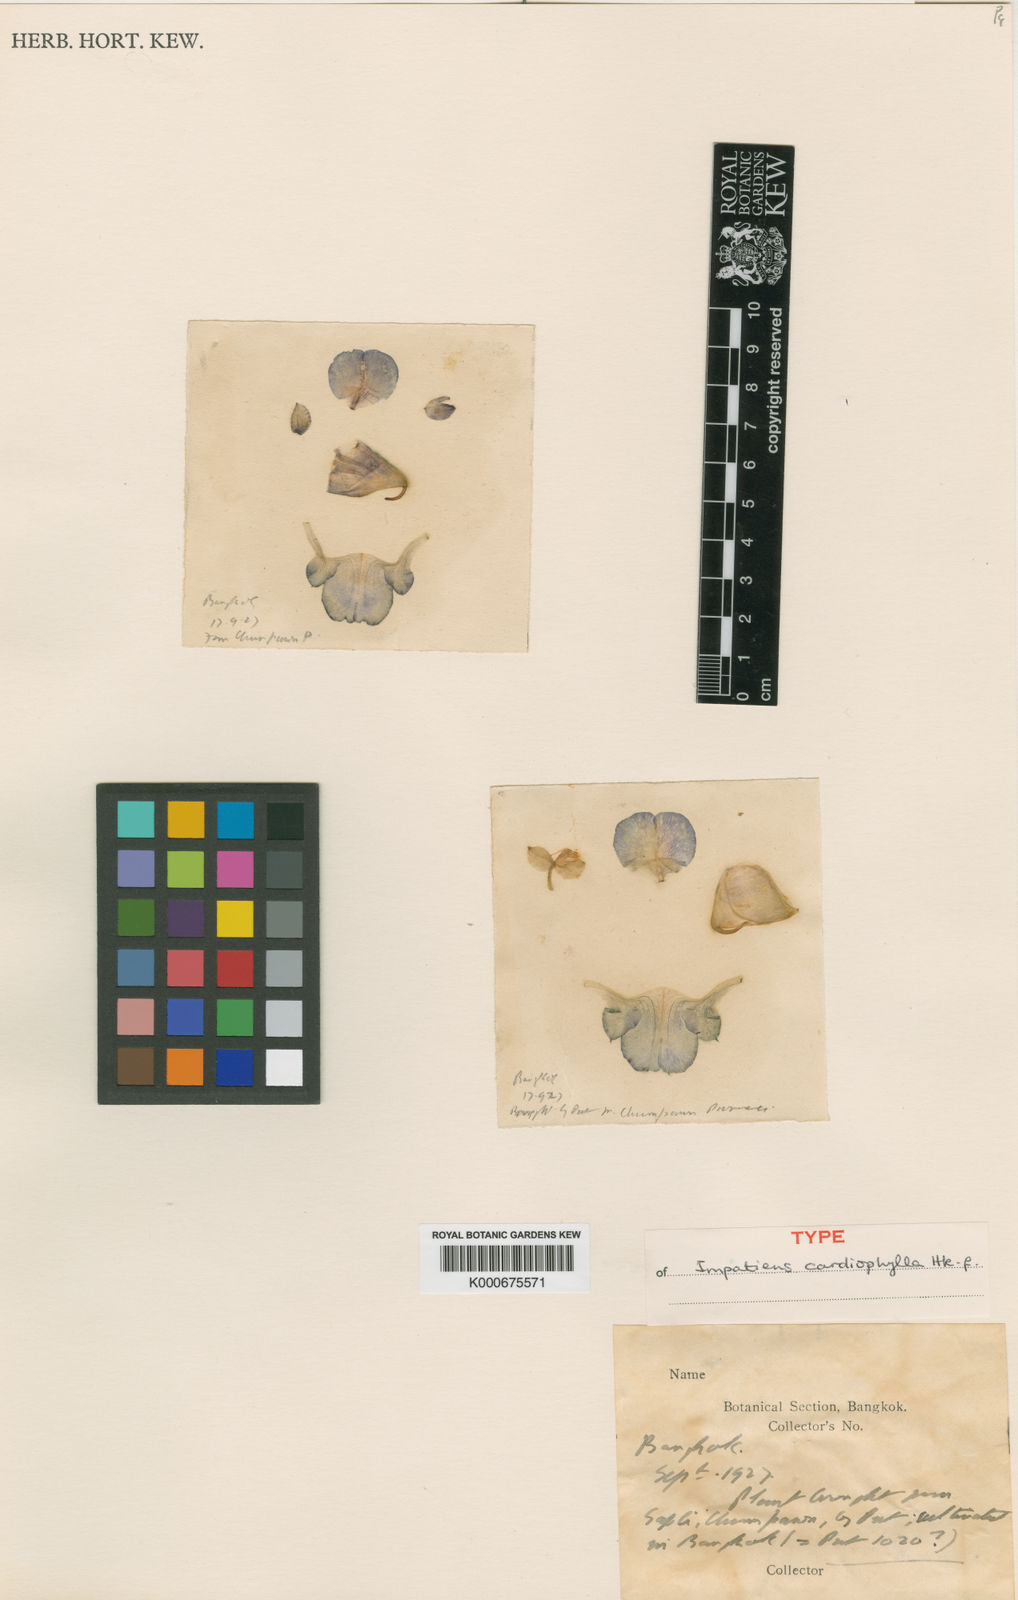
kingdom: Plantae
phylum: Tracheophyta
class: Magnoliopsida
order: Ericales
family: Balsaminaceae
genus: Impatiens
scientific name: Impatiens cardiophylla
